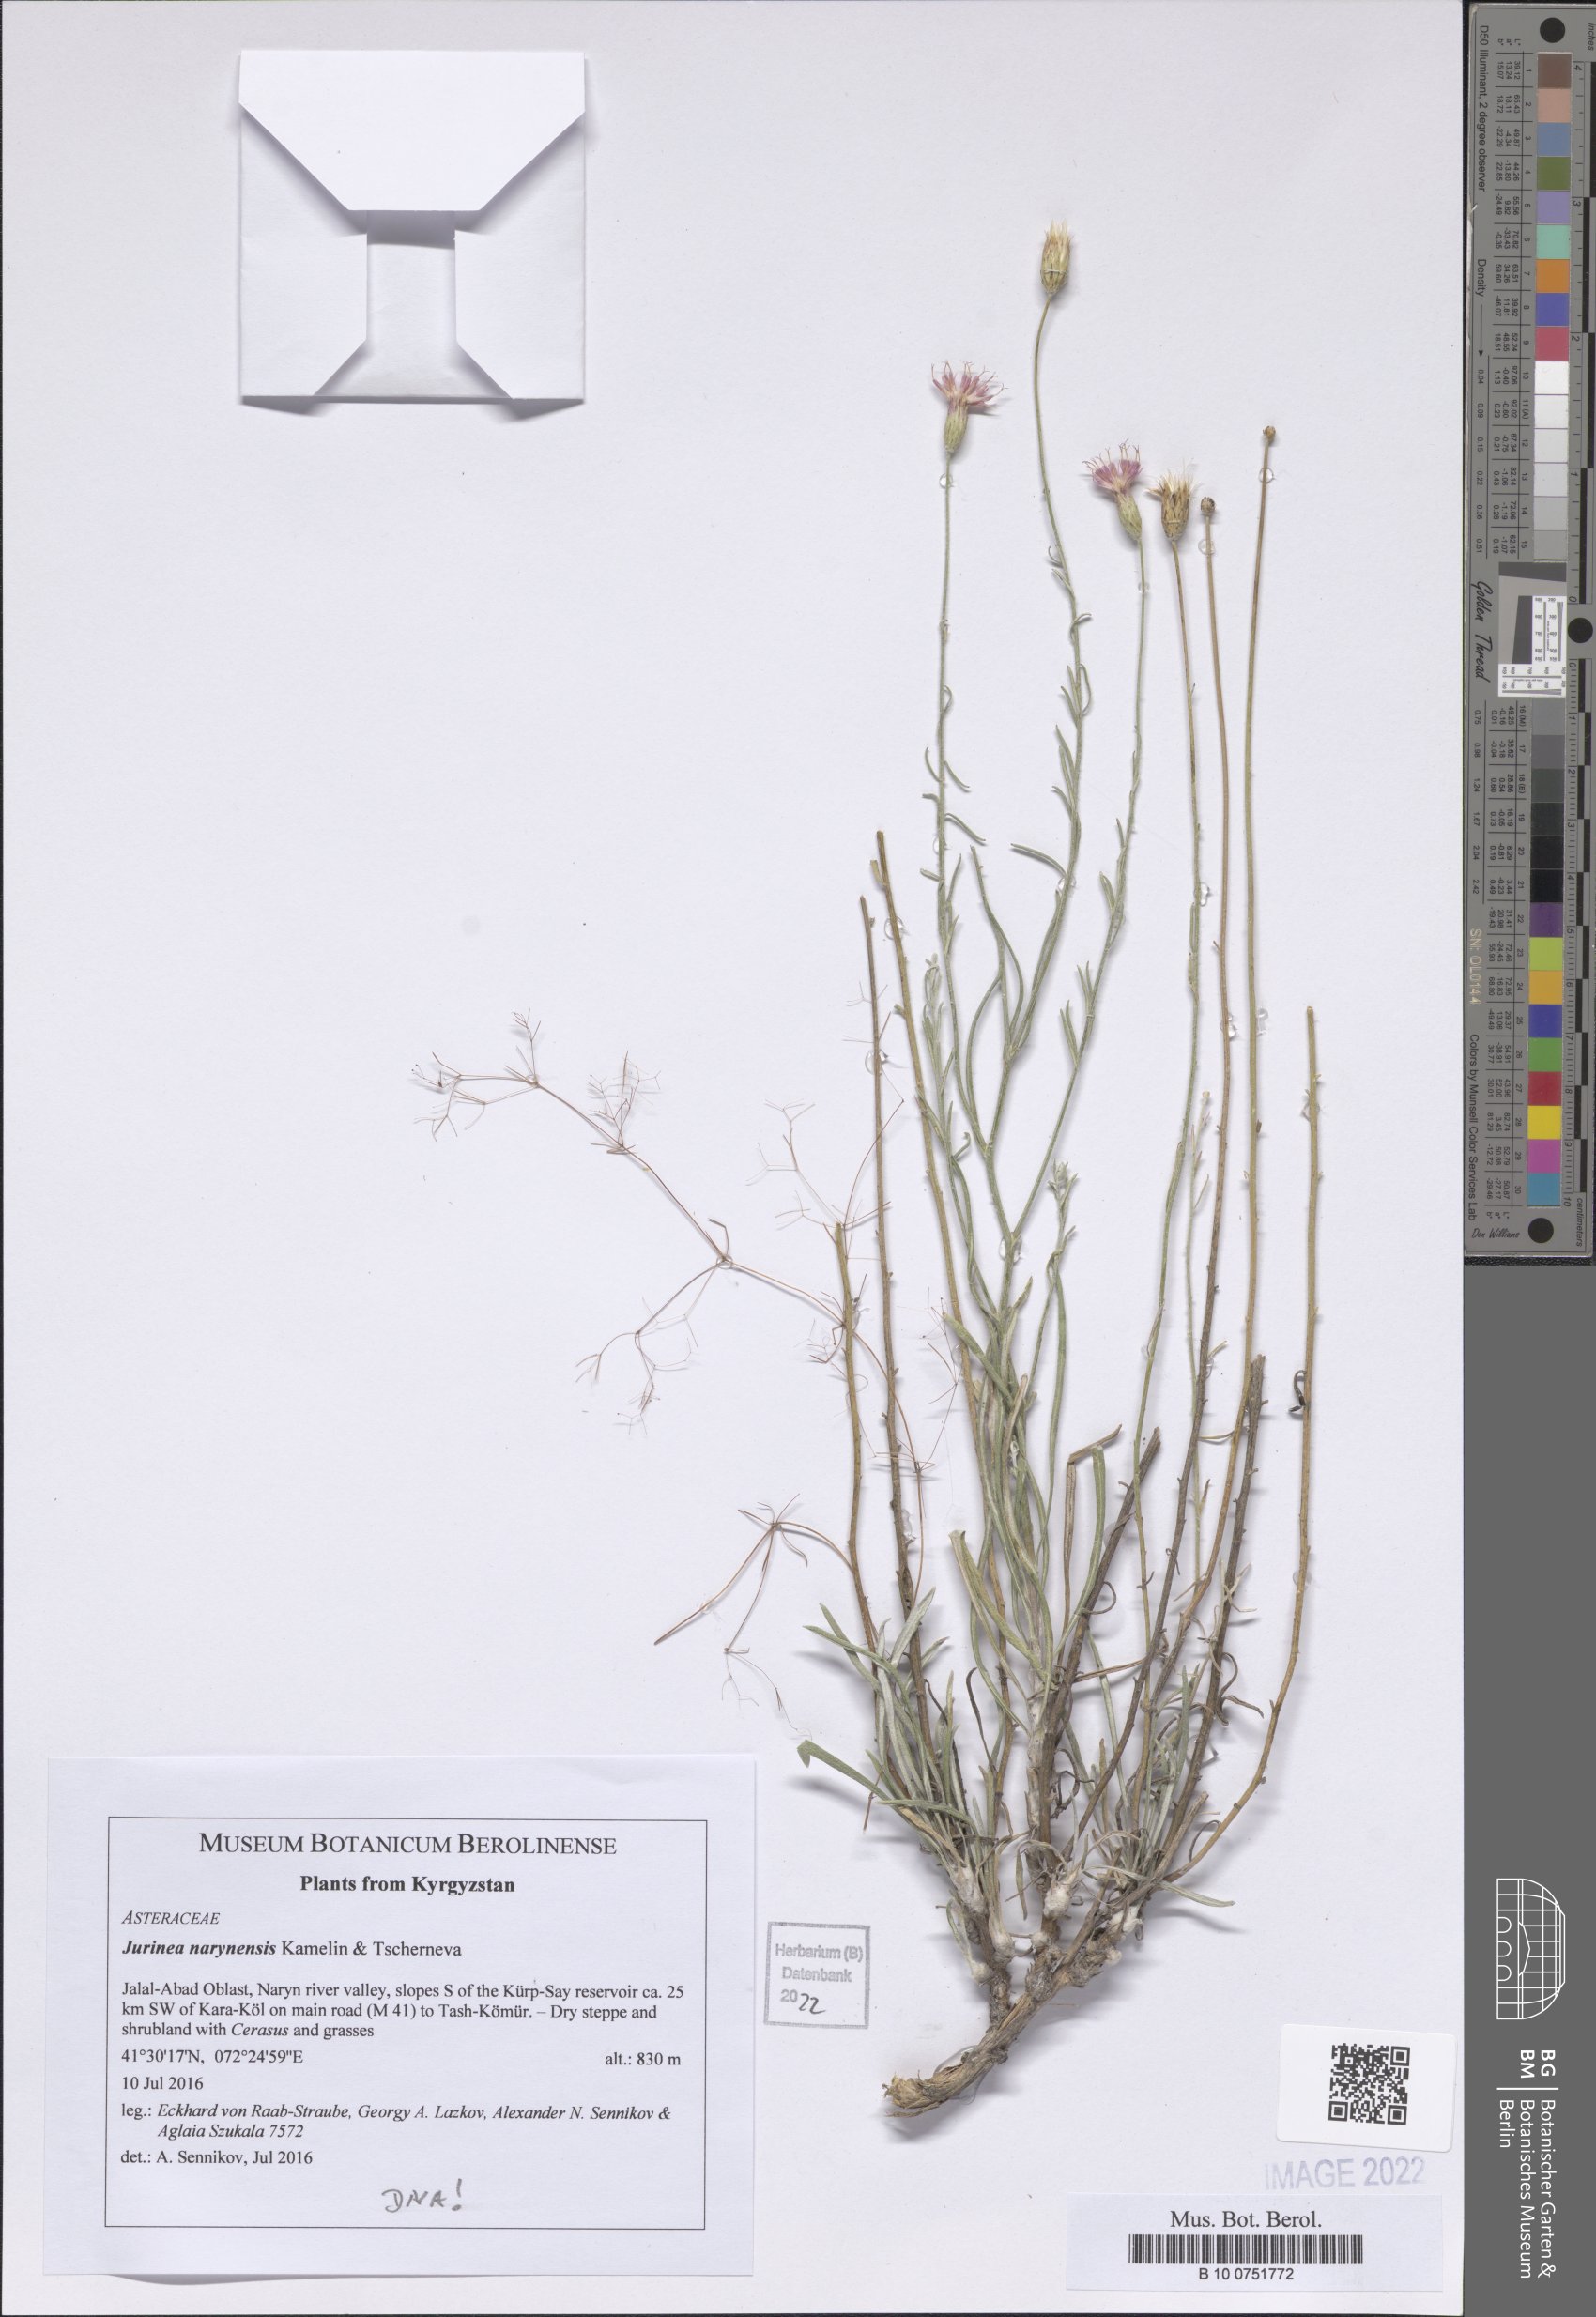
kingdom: Plantae
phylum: Tracheophyta
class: Magnoliopsida
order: Asterales
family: Asteraceae
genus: Jurinea
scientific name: Jurinea narynensis
